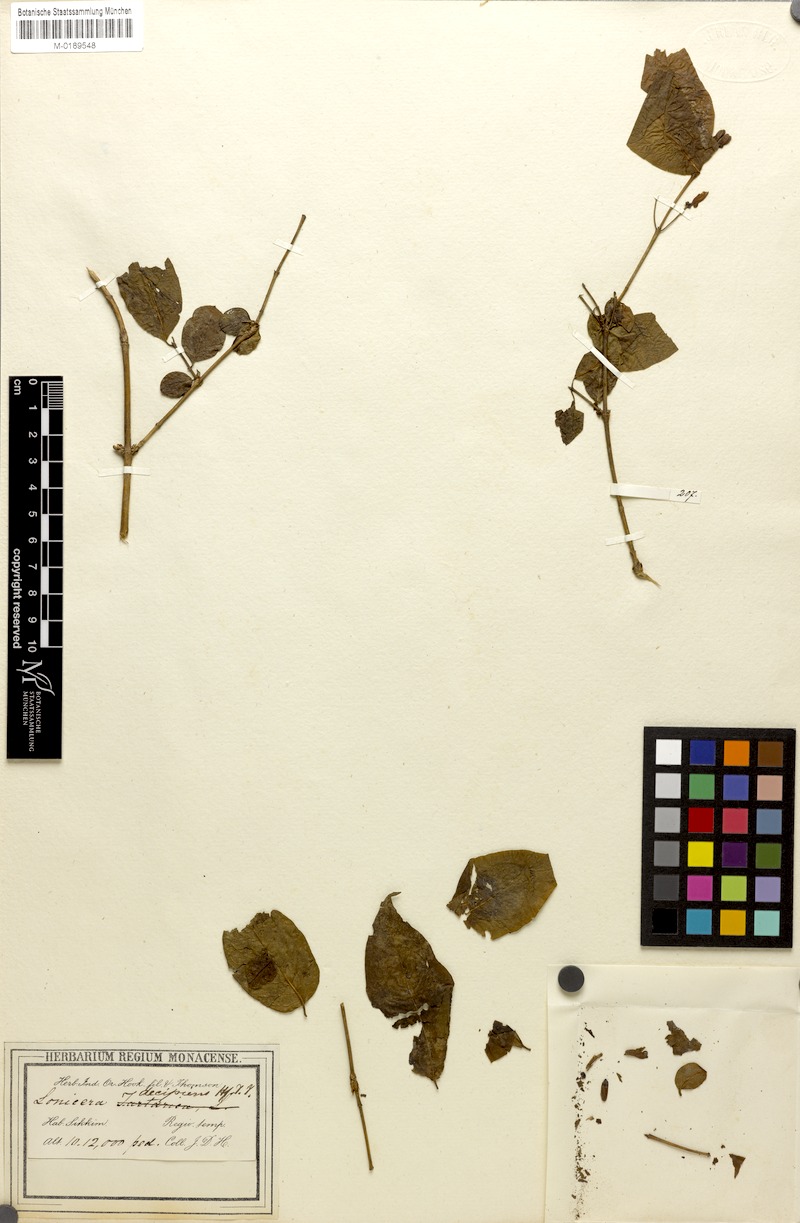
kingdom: Plantae
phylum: Tracheophyta
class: Magnoliopsida
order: Dipsacales
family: Caprifoliaceae
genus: Lonicera
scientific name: Lonicera lanceolata
